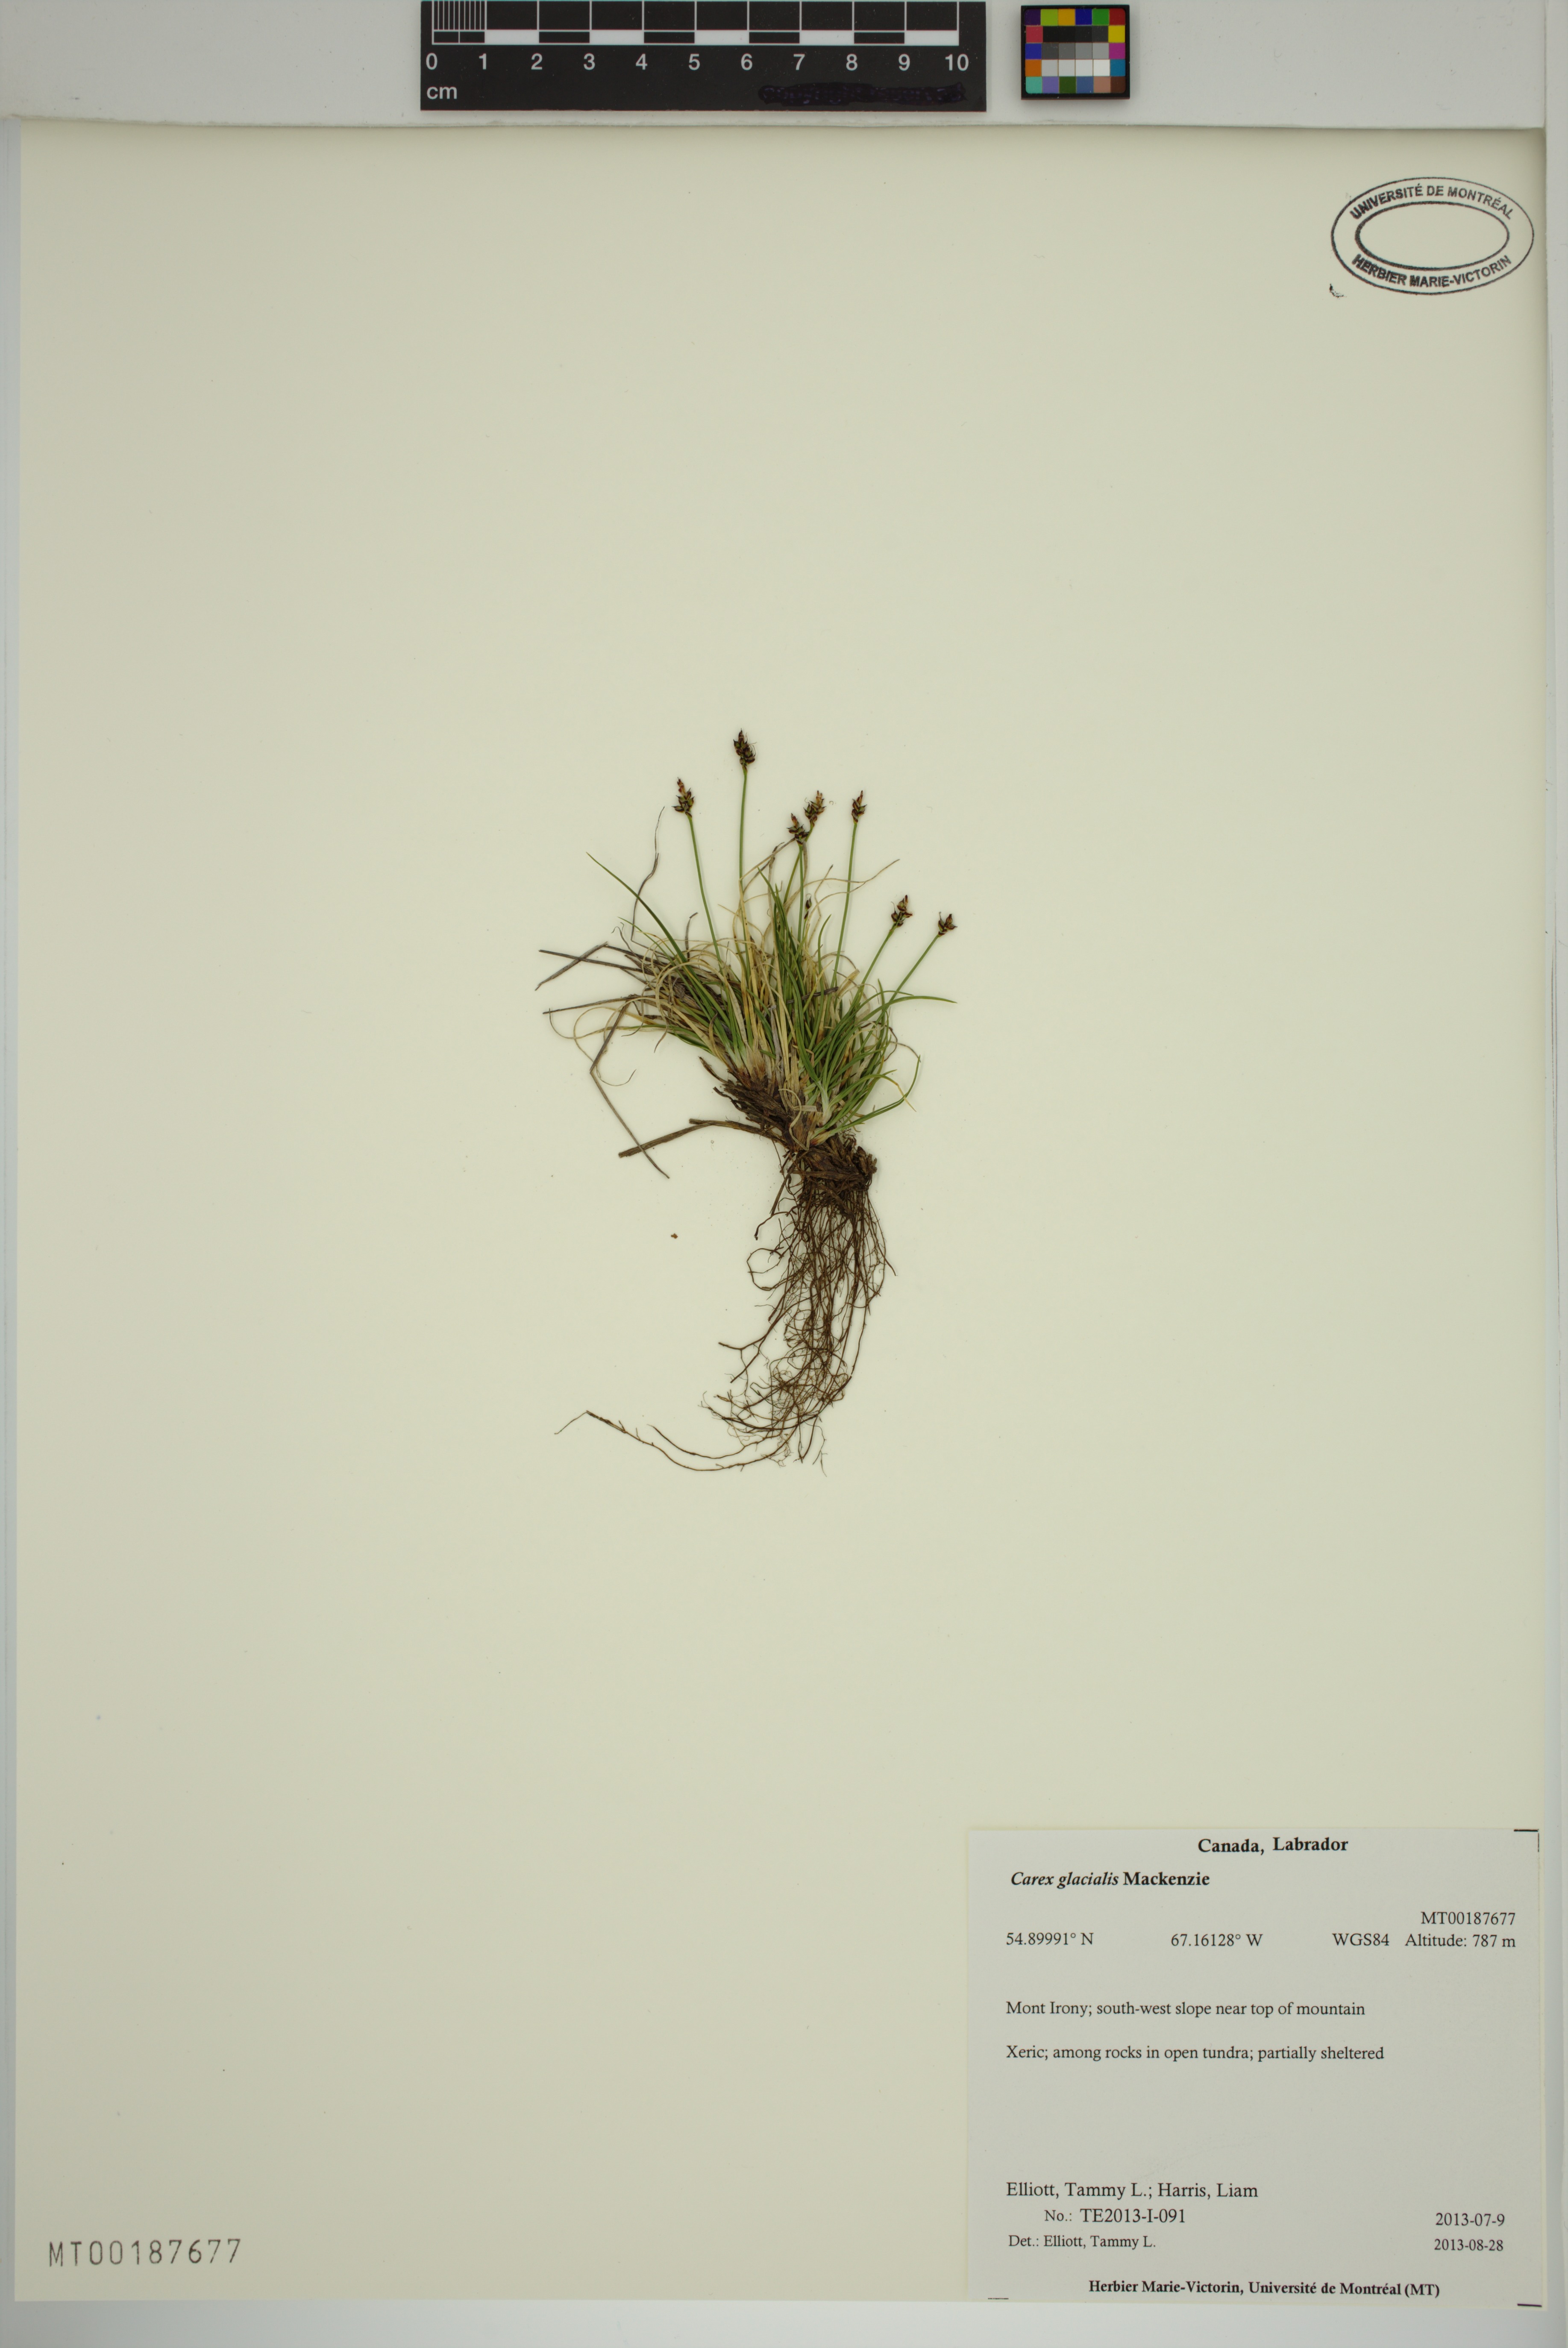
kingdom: Plantae
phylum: Tracheophyta
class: Liliopsida
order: Poales
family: Cyperaceae
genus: Carex
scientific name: Carex glacialis
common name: Newfoundland sedge
